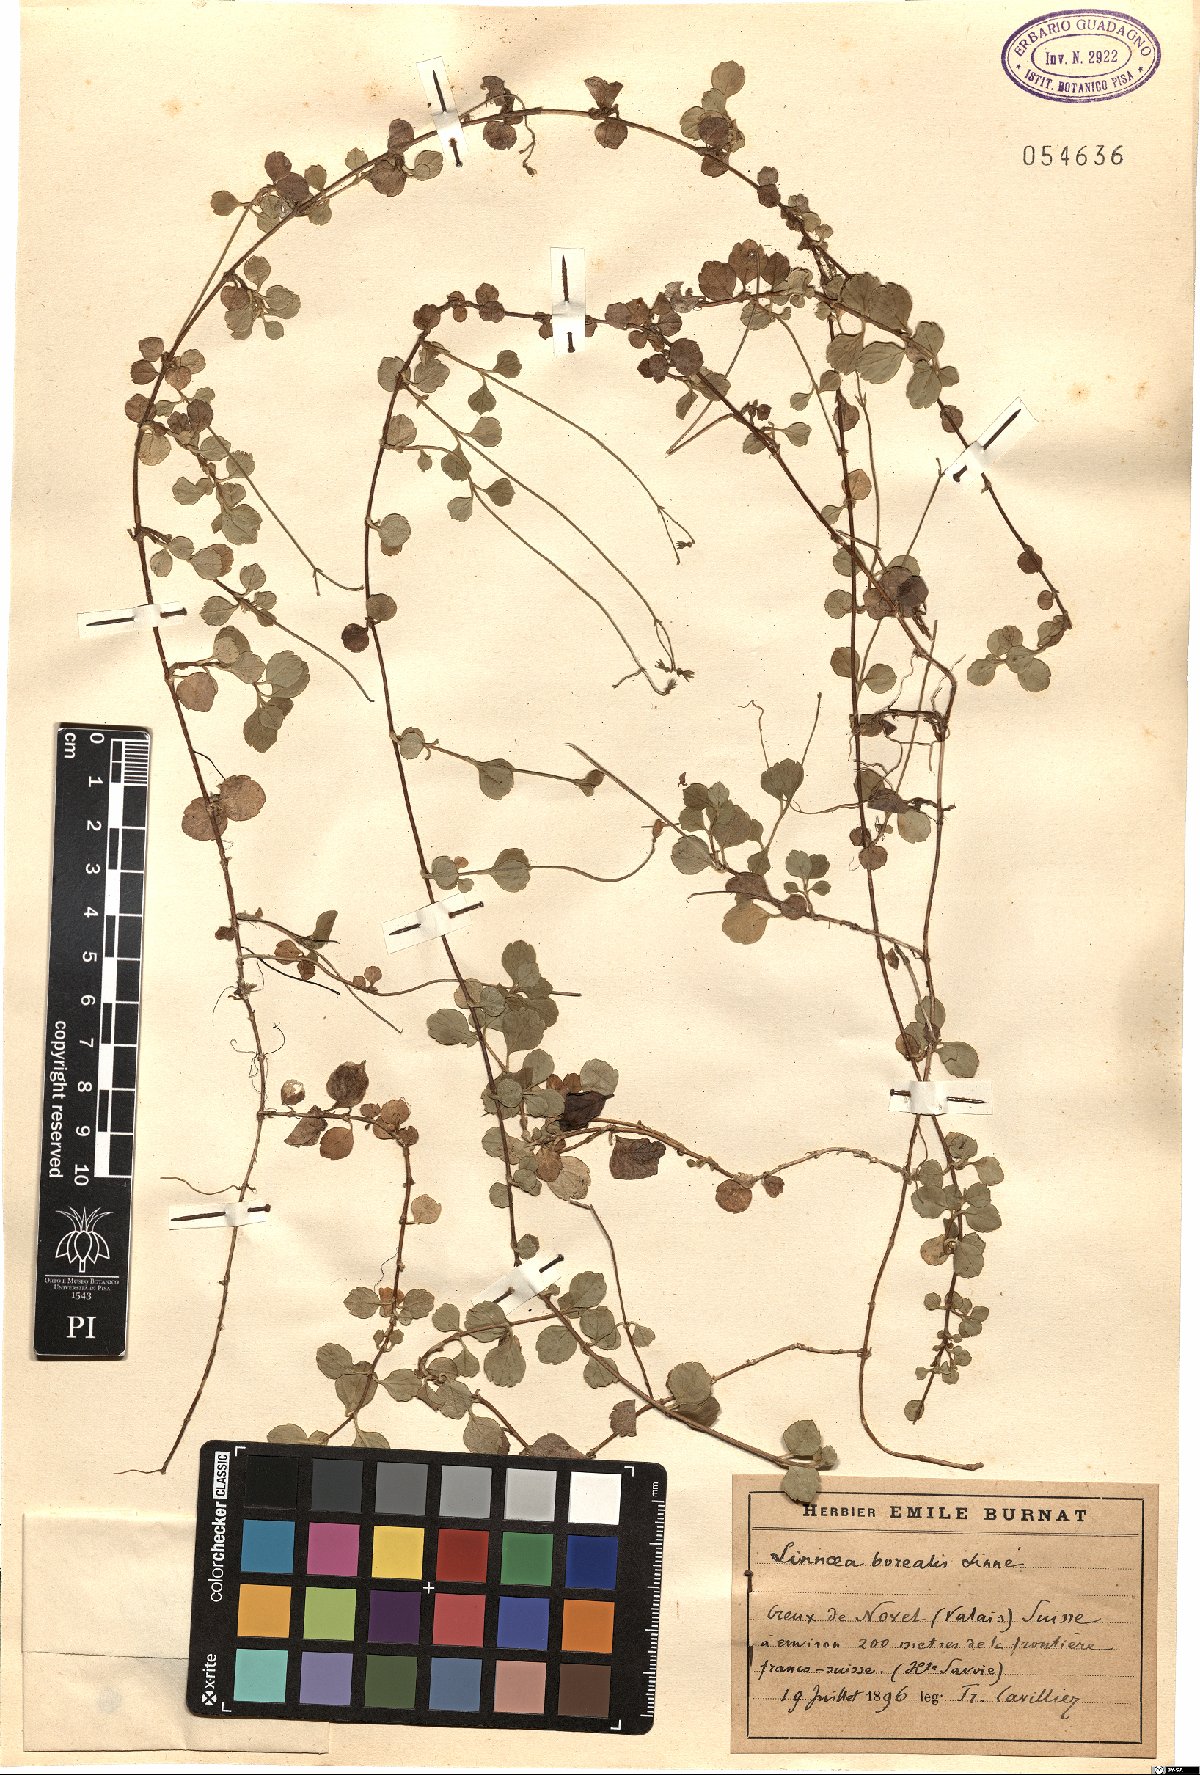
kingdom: Plantae
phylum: Tracheophyta
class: Magnoliopsida
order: Dipsacales
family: Caprifoliaceae
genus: Linnaea
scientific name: Linnaea borealis
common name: Twinflower
